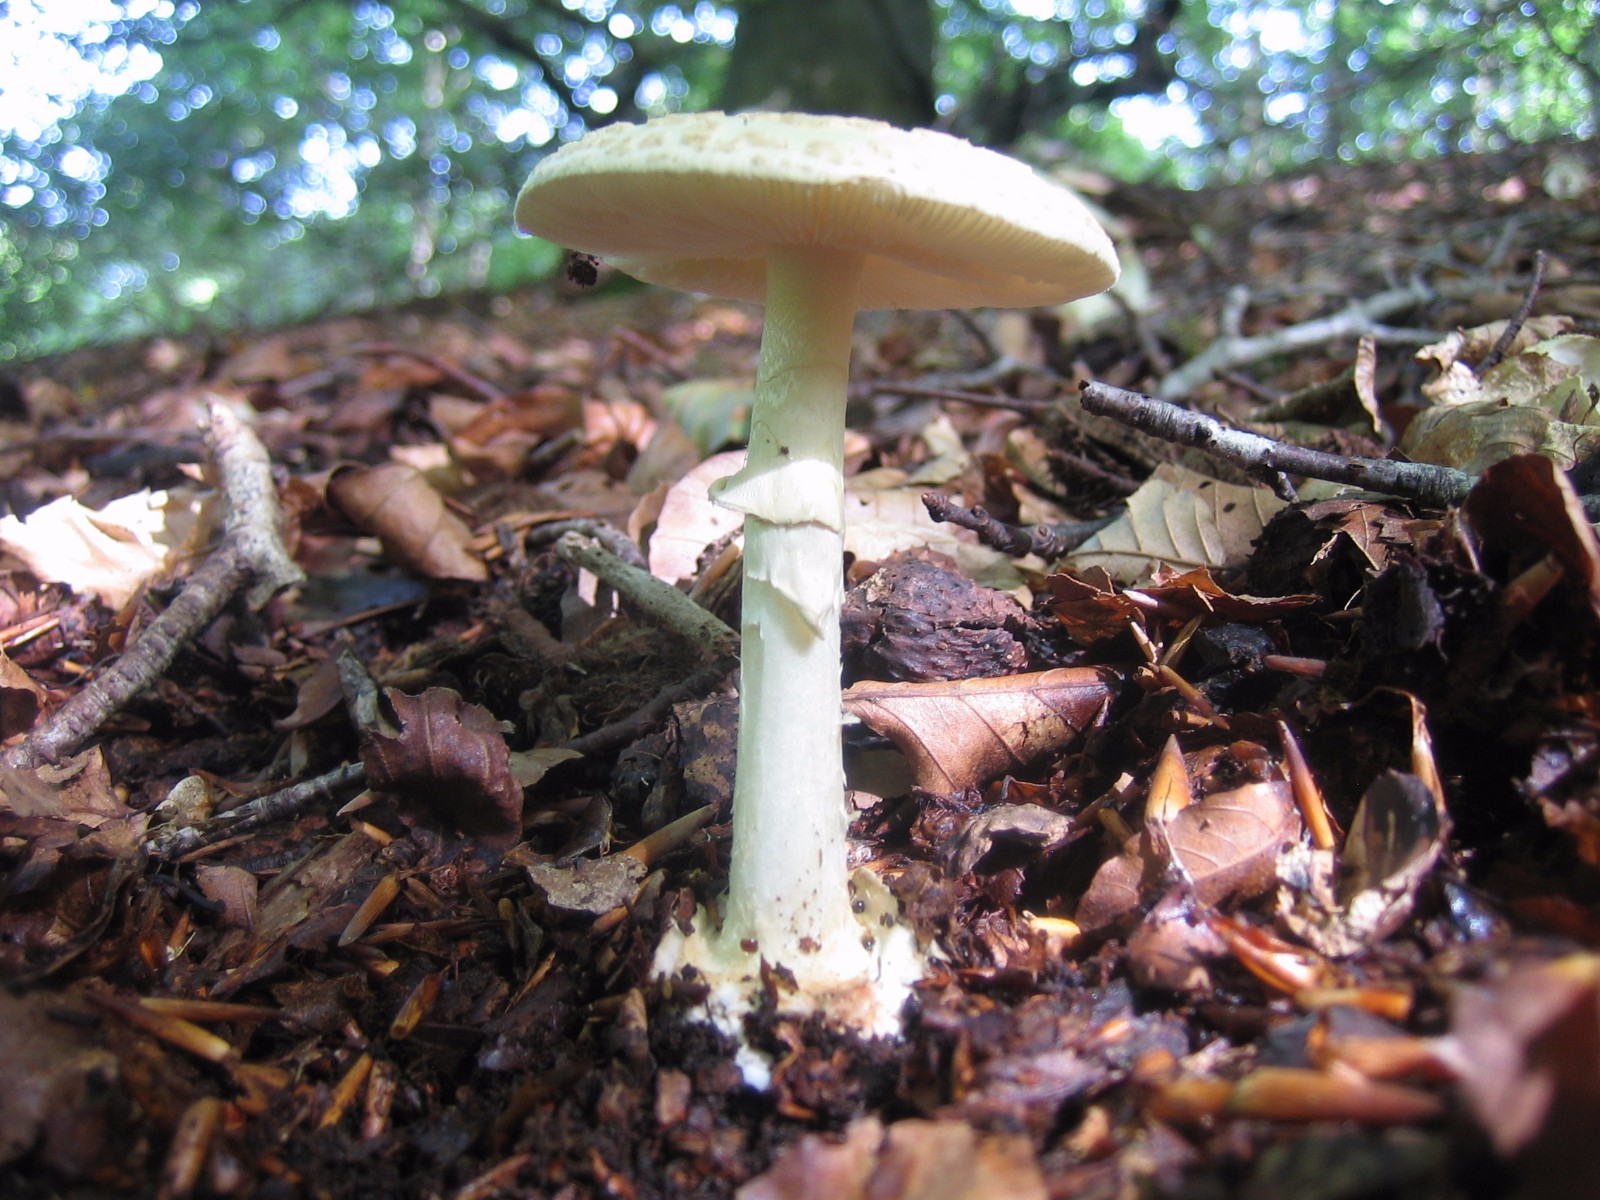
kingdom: Fungi
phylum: Basidiomycota
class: Agaricomycetes
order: Agaricales
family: Amanitaceae
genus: Amanita
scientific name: Amanita citrina
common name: kugleknoldet fluesvamp
